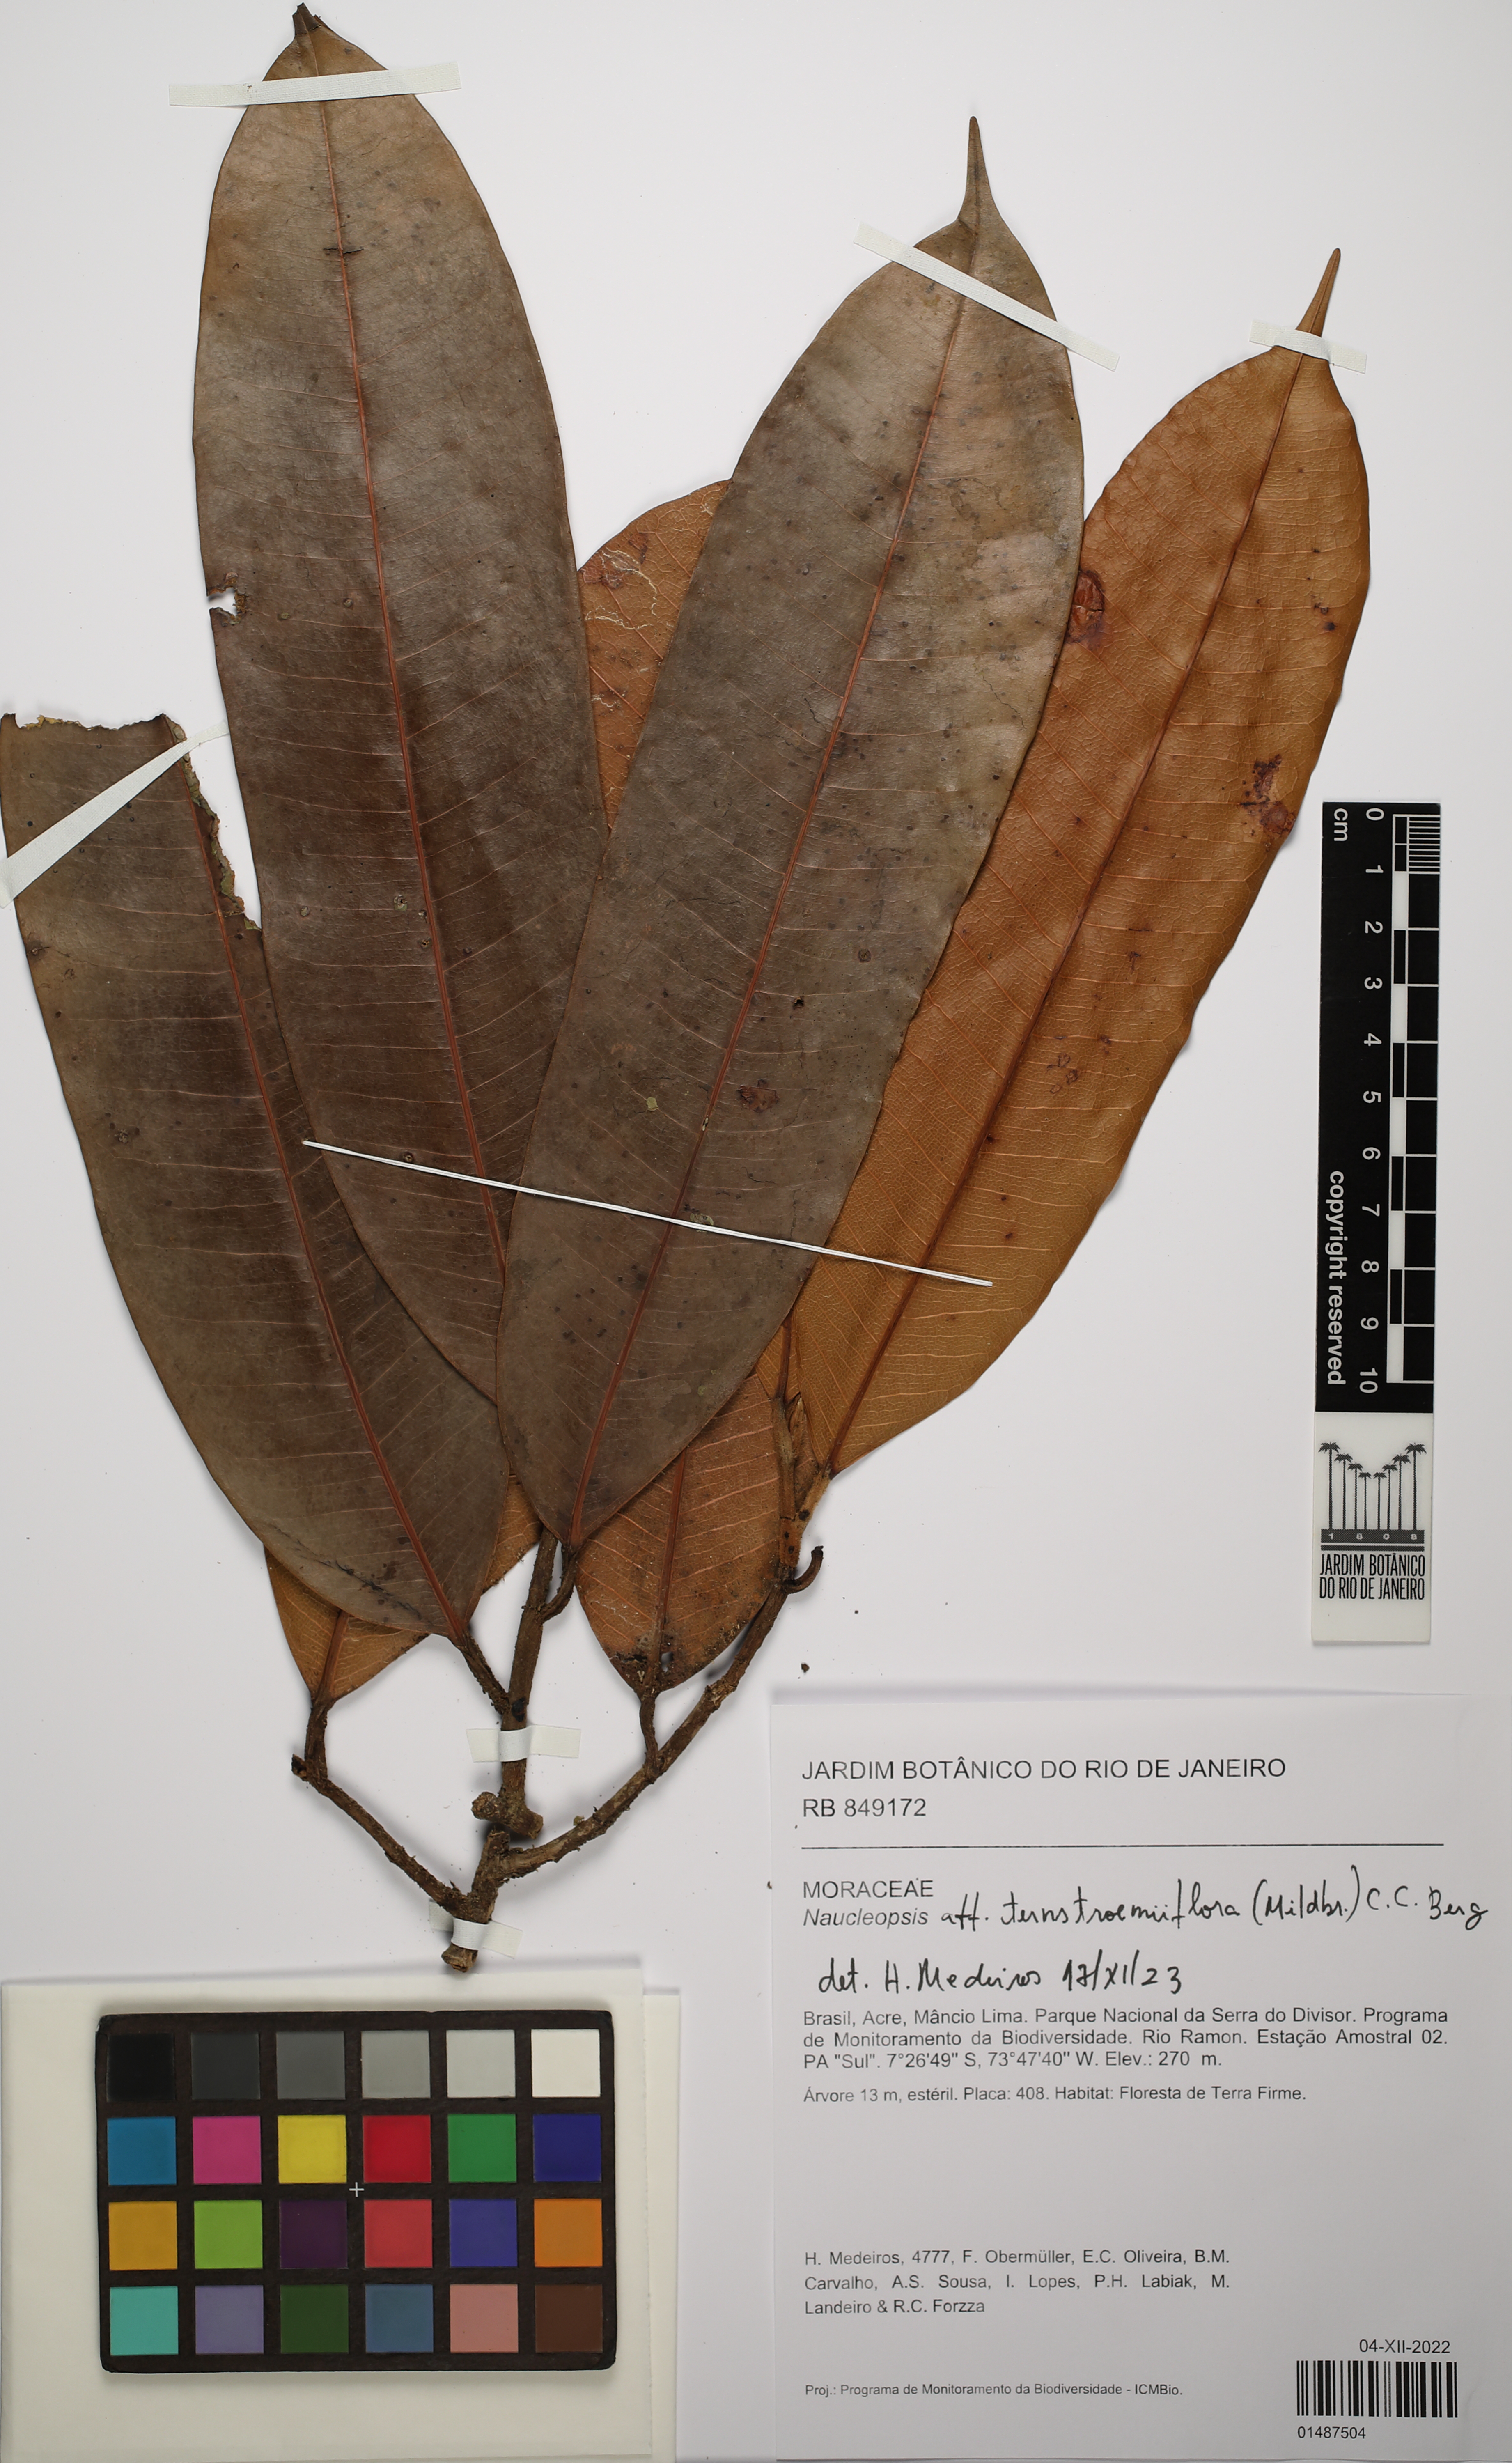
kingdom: Plantae
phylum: Tracheophyta
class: Magnoliopsida
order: Rosales
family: Moraceae
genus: Naucleopsis
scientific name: Naucleopsis ternstroemiiflora
